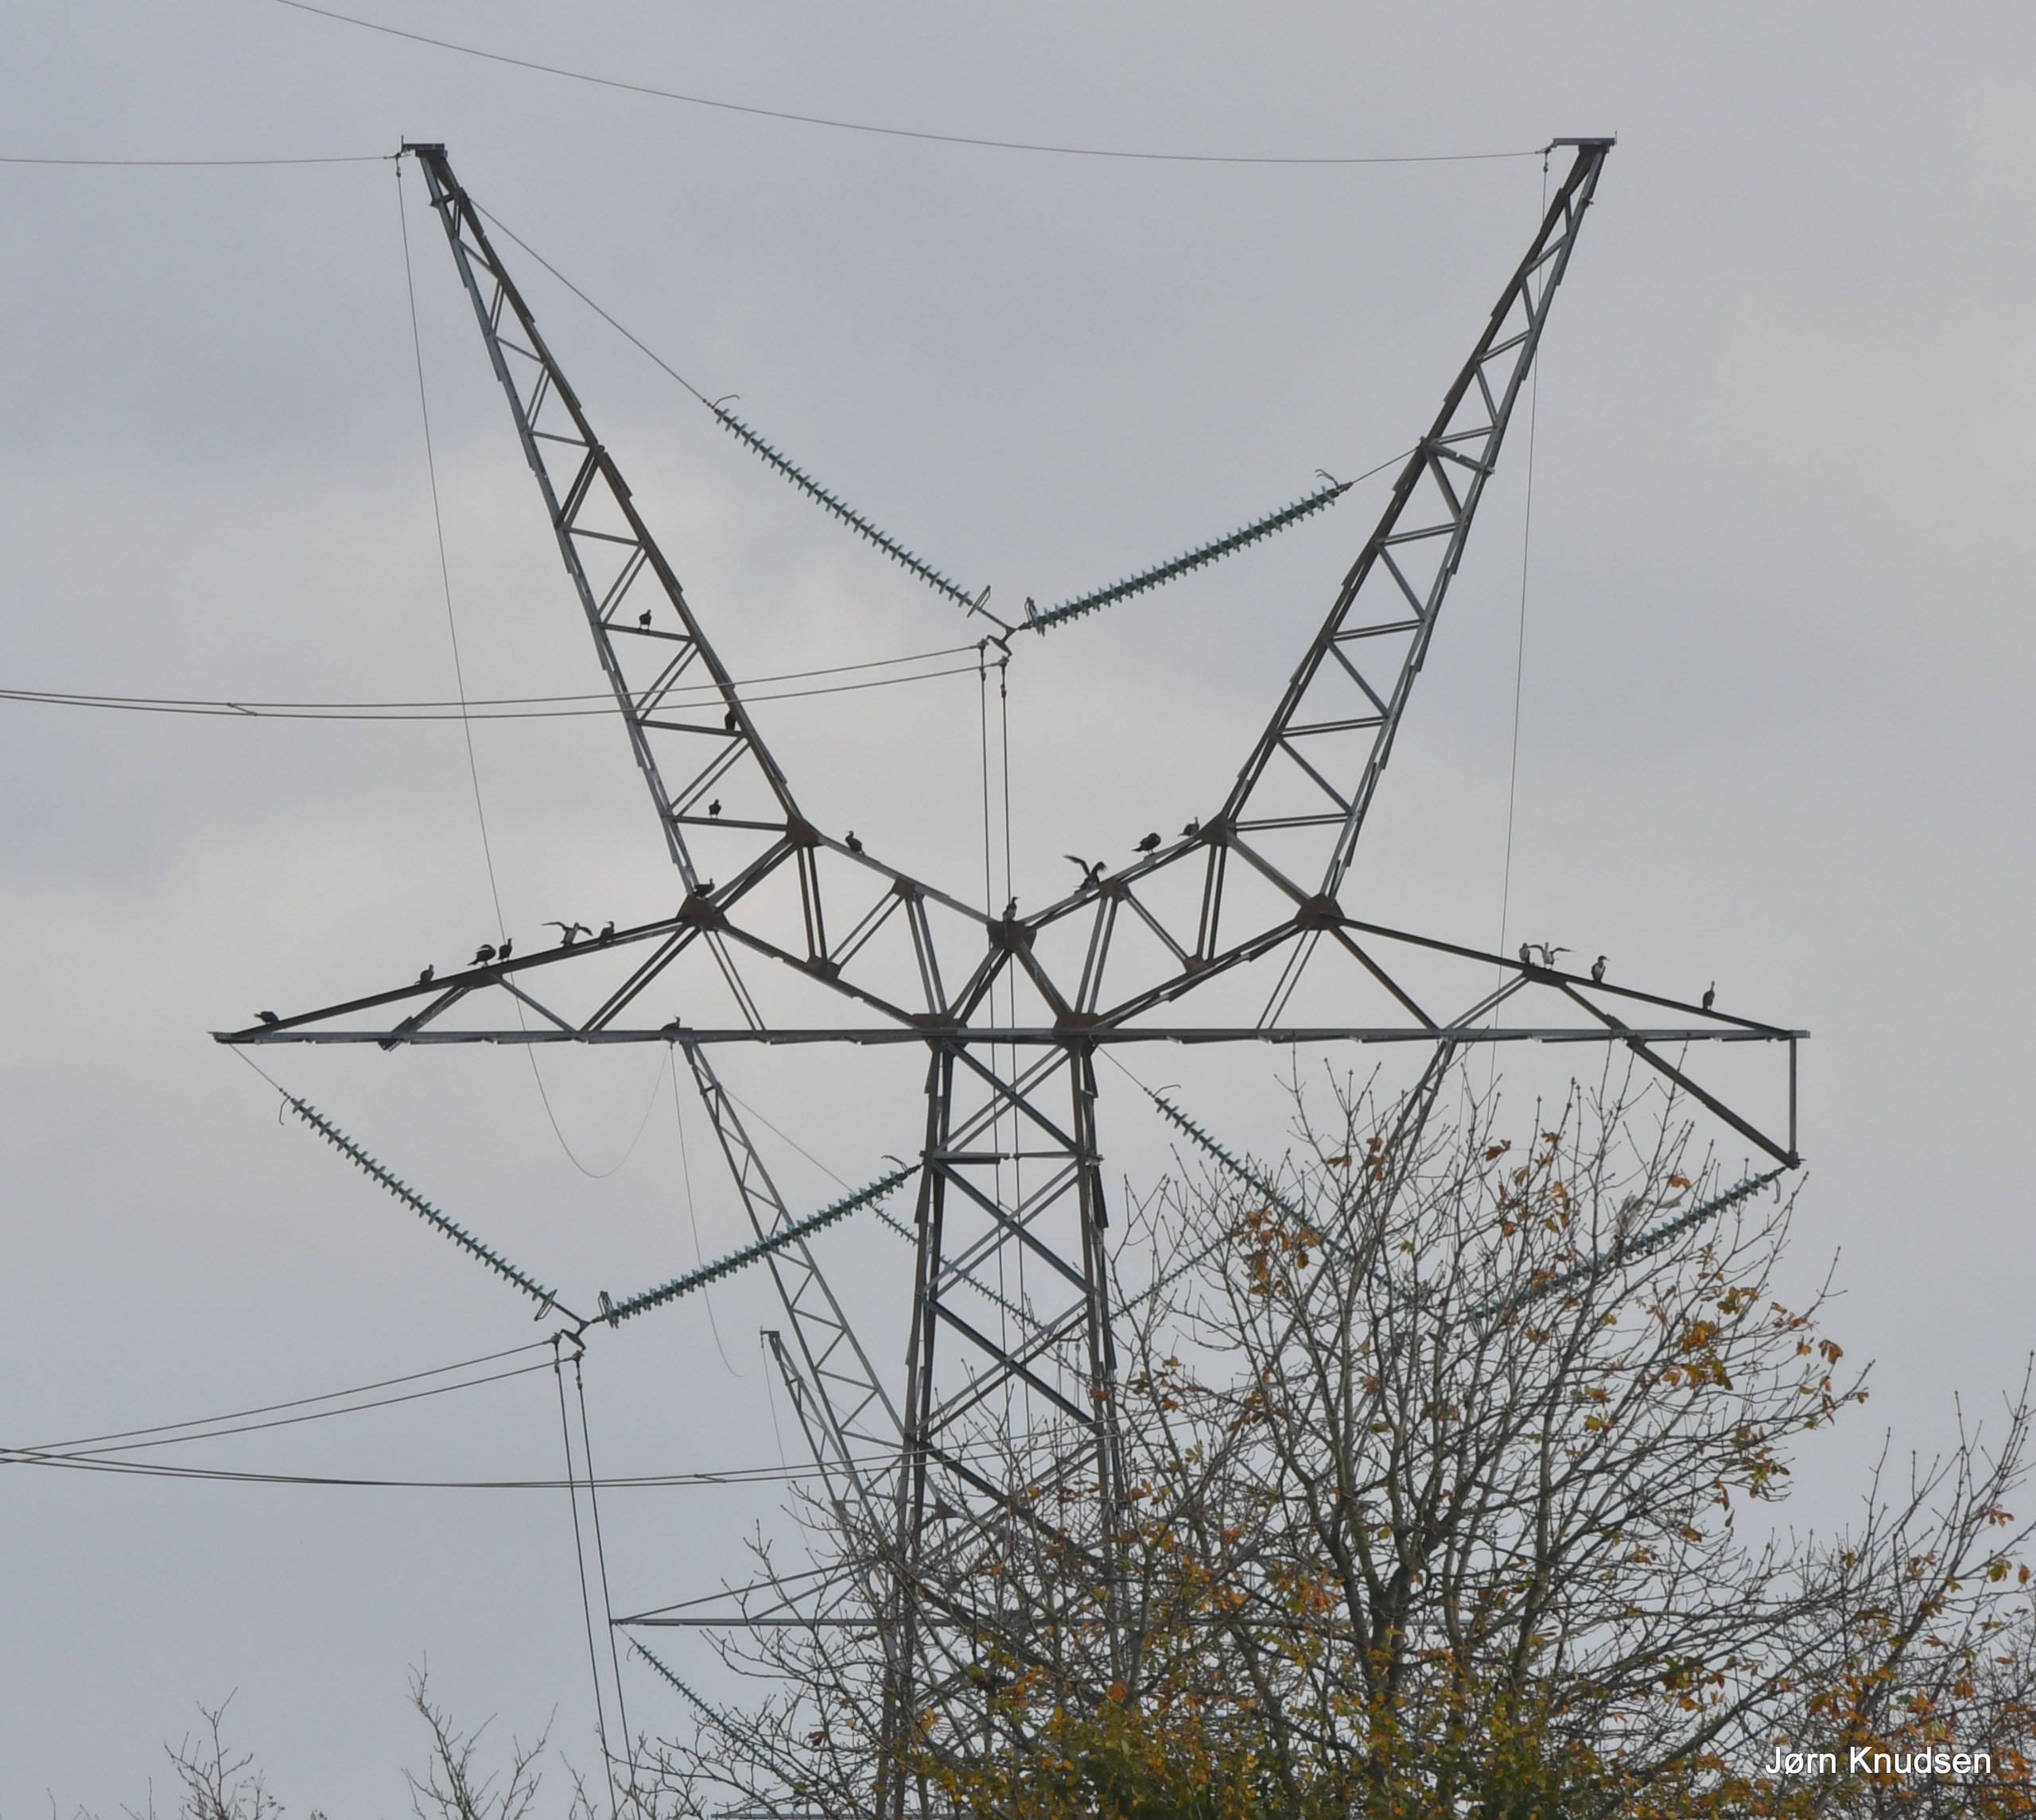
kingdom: Animalia
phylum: Chordata
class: Aves
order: Suliformes
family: Phalacrocoracidae
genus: Phalacrocorax
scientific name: Phalacrocorax carbo
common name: Skarv
